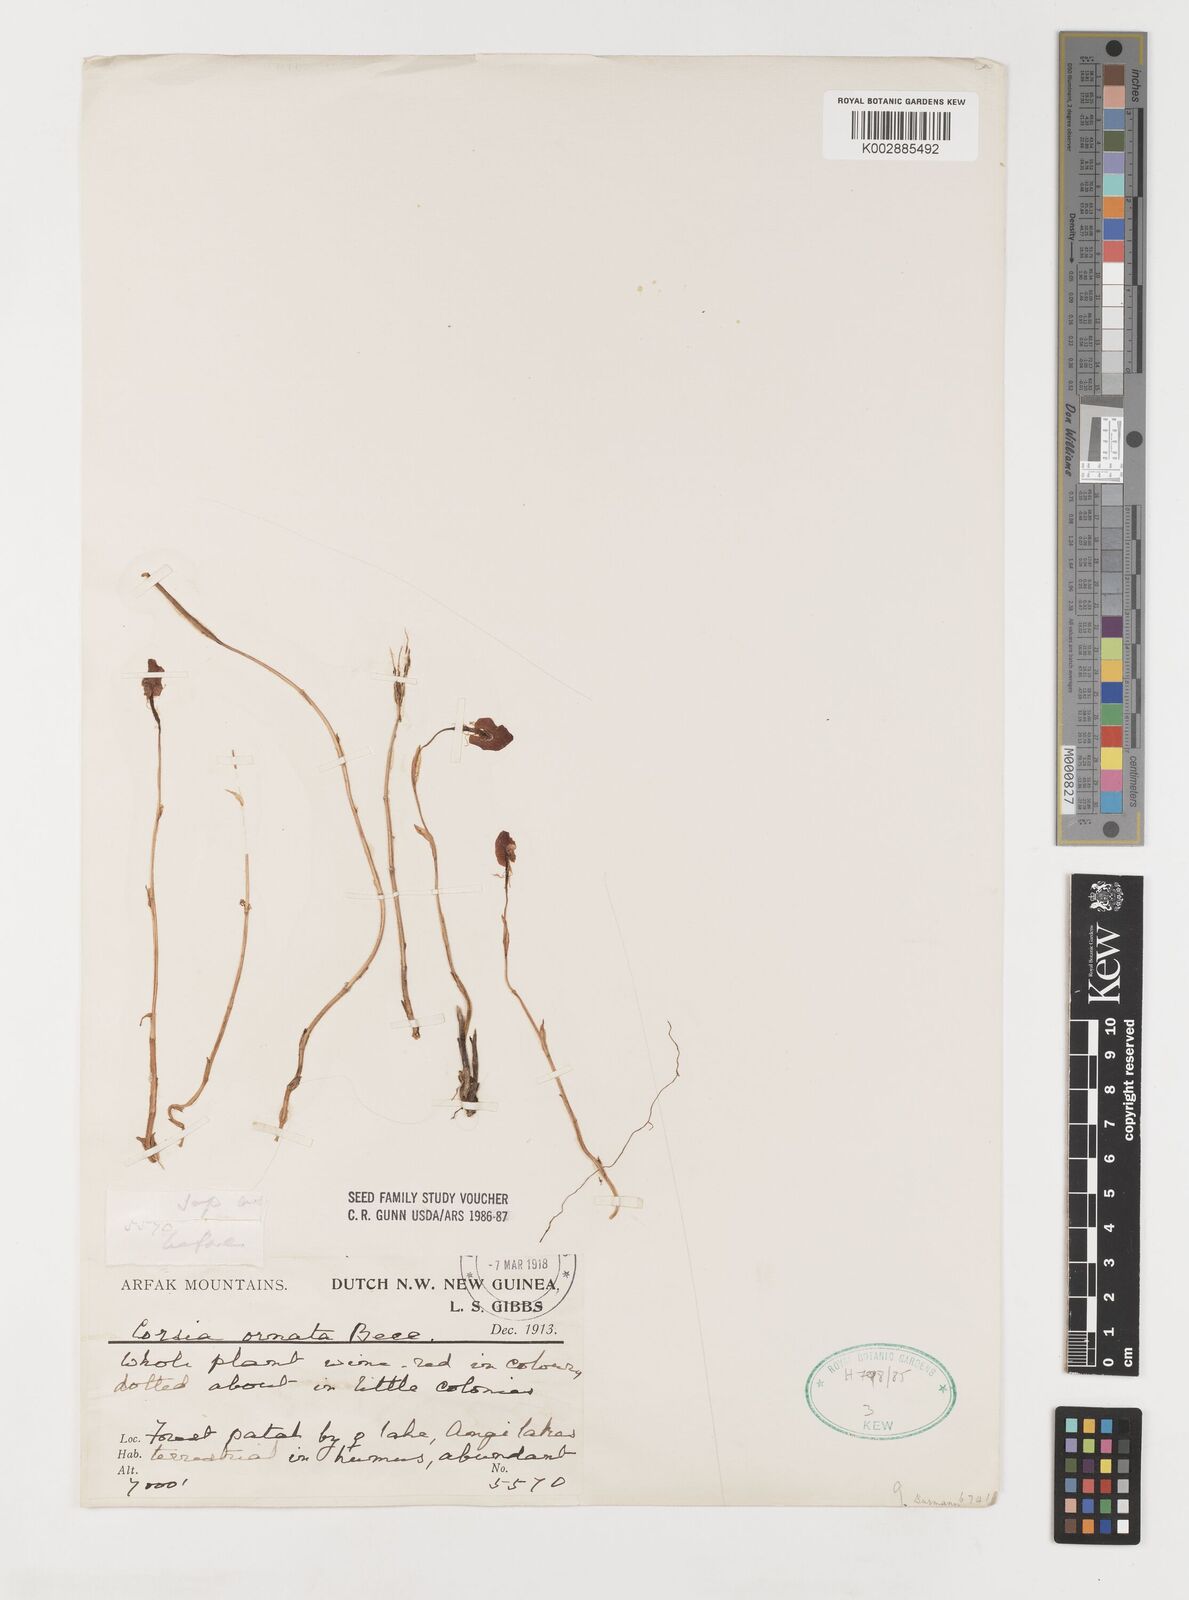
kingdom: Plantae
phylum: Tracheophyta
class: Liliopsida
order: Liliales
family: Corsiaceae
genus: Corsia
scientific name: Corsia ornata
